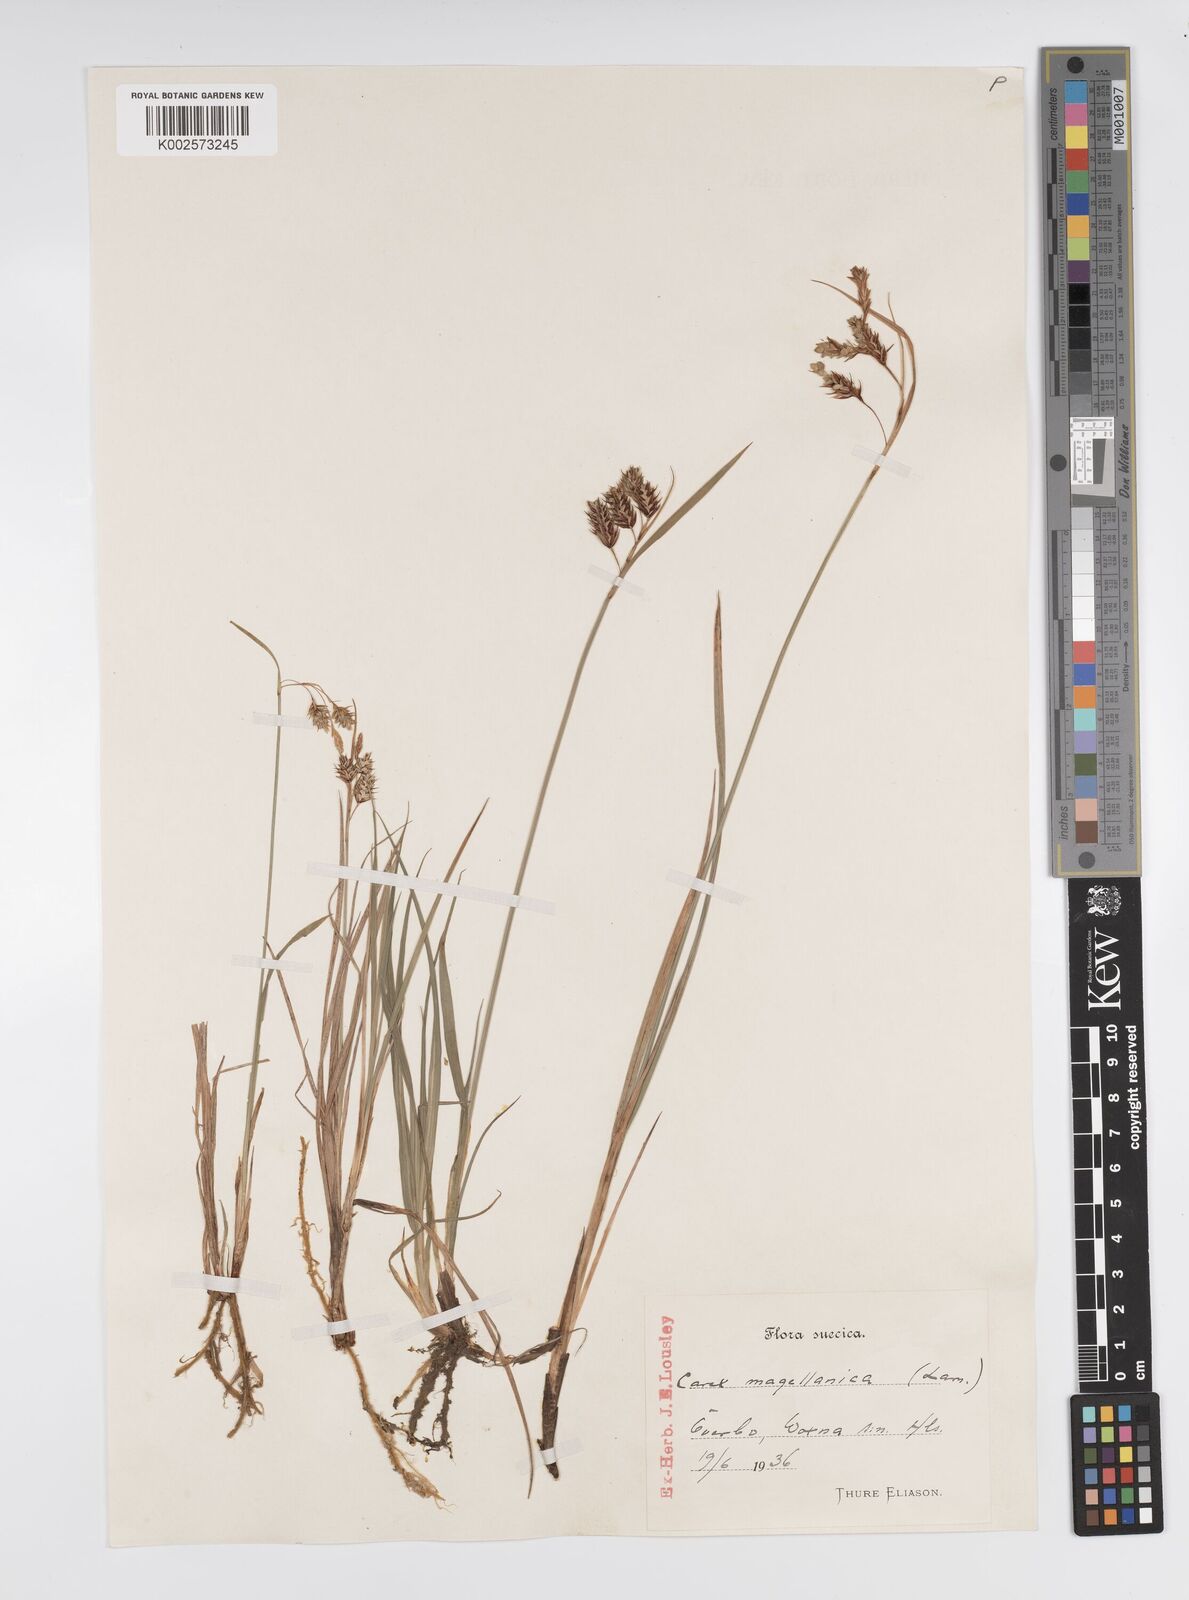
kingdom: Plantae
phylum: Tracheophyta
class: Liliopsida
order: Poales
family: Cyperaceae
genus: Carex
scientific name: Carex magellanica
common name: Bog sedge
